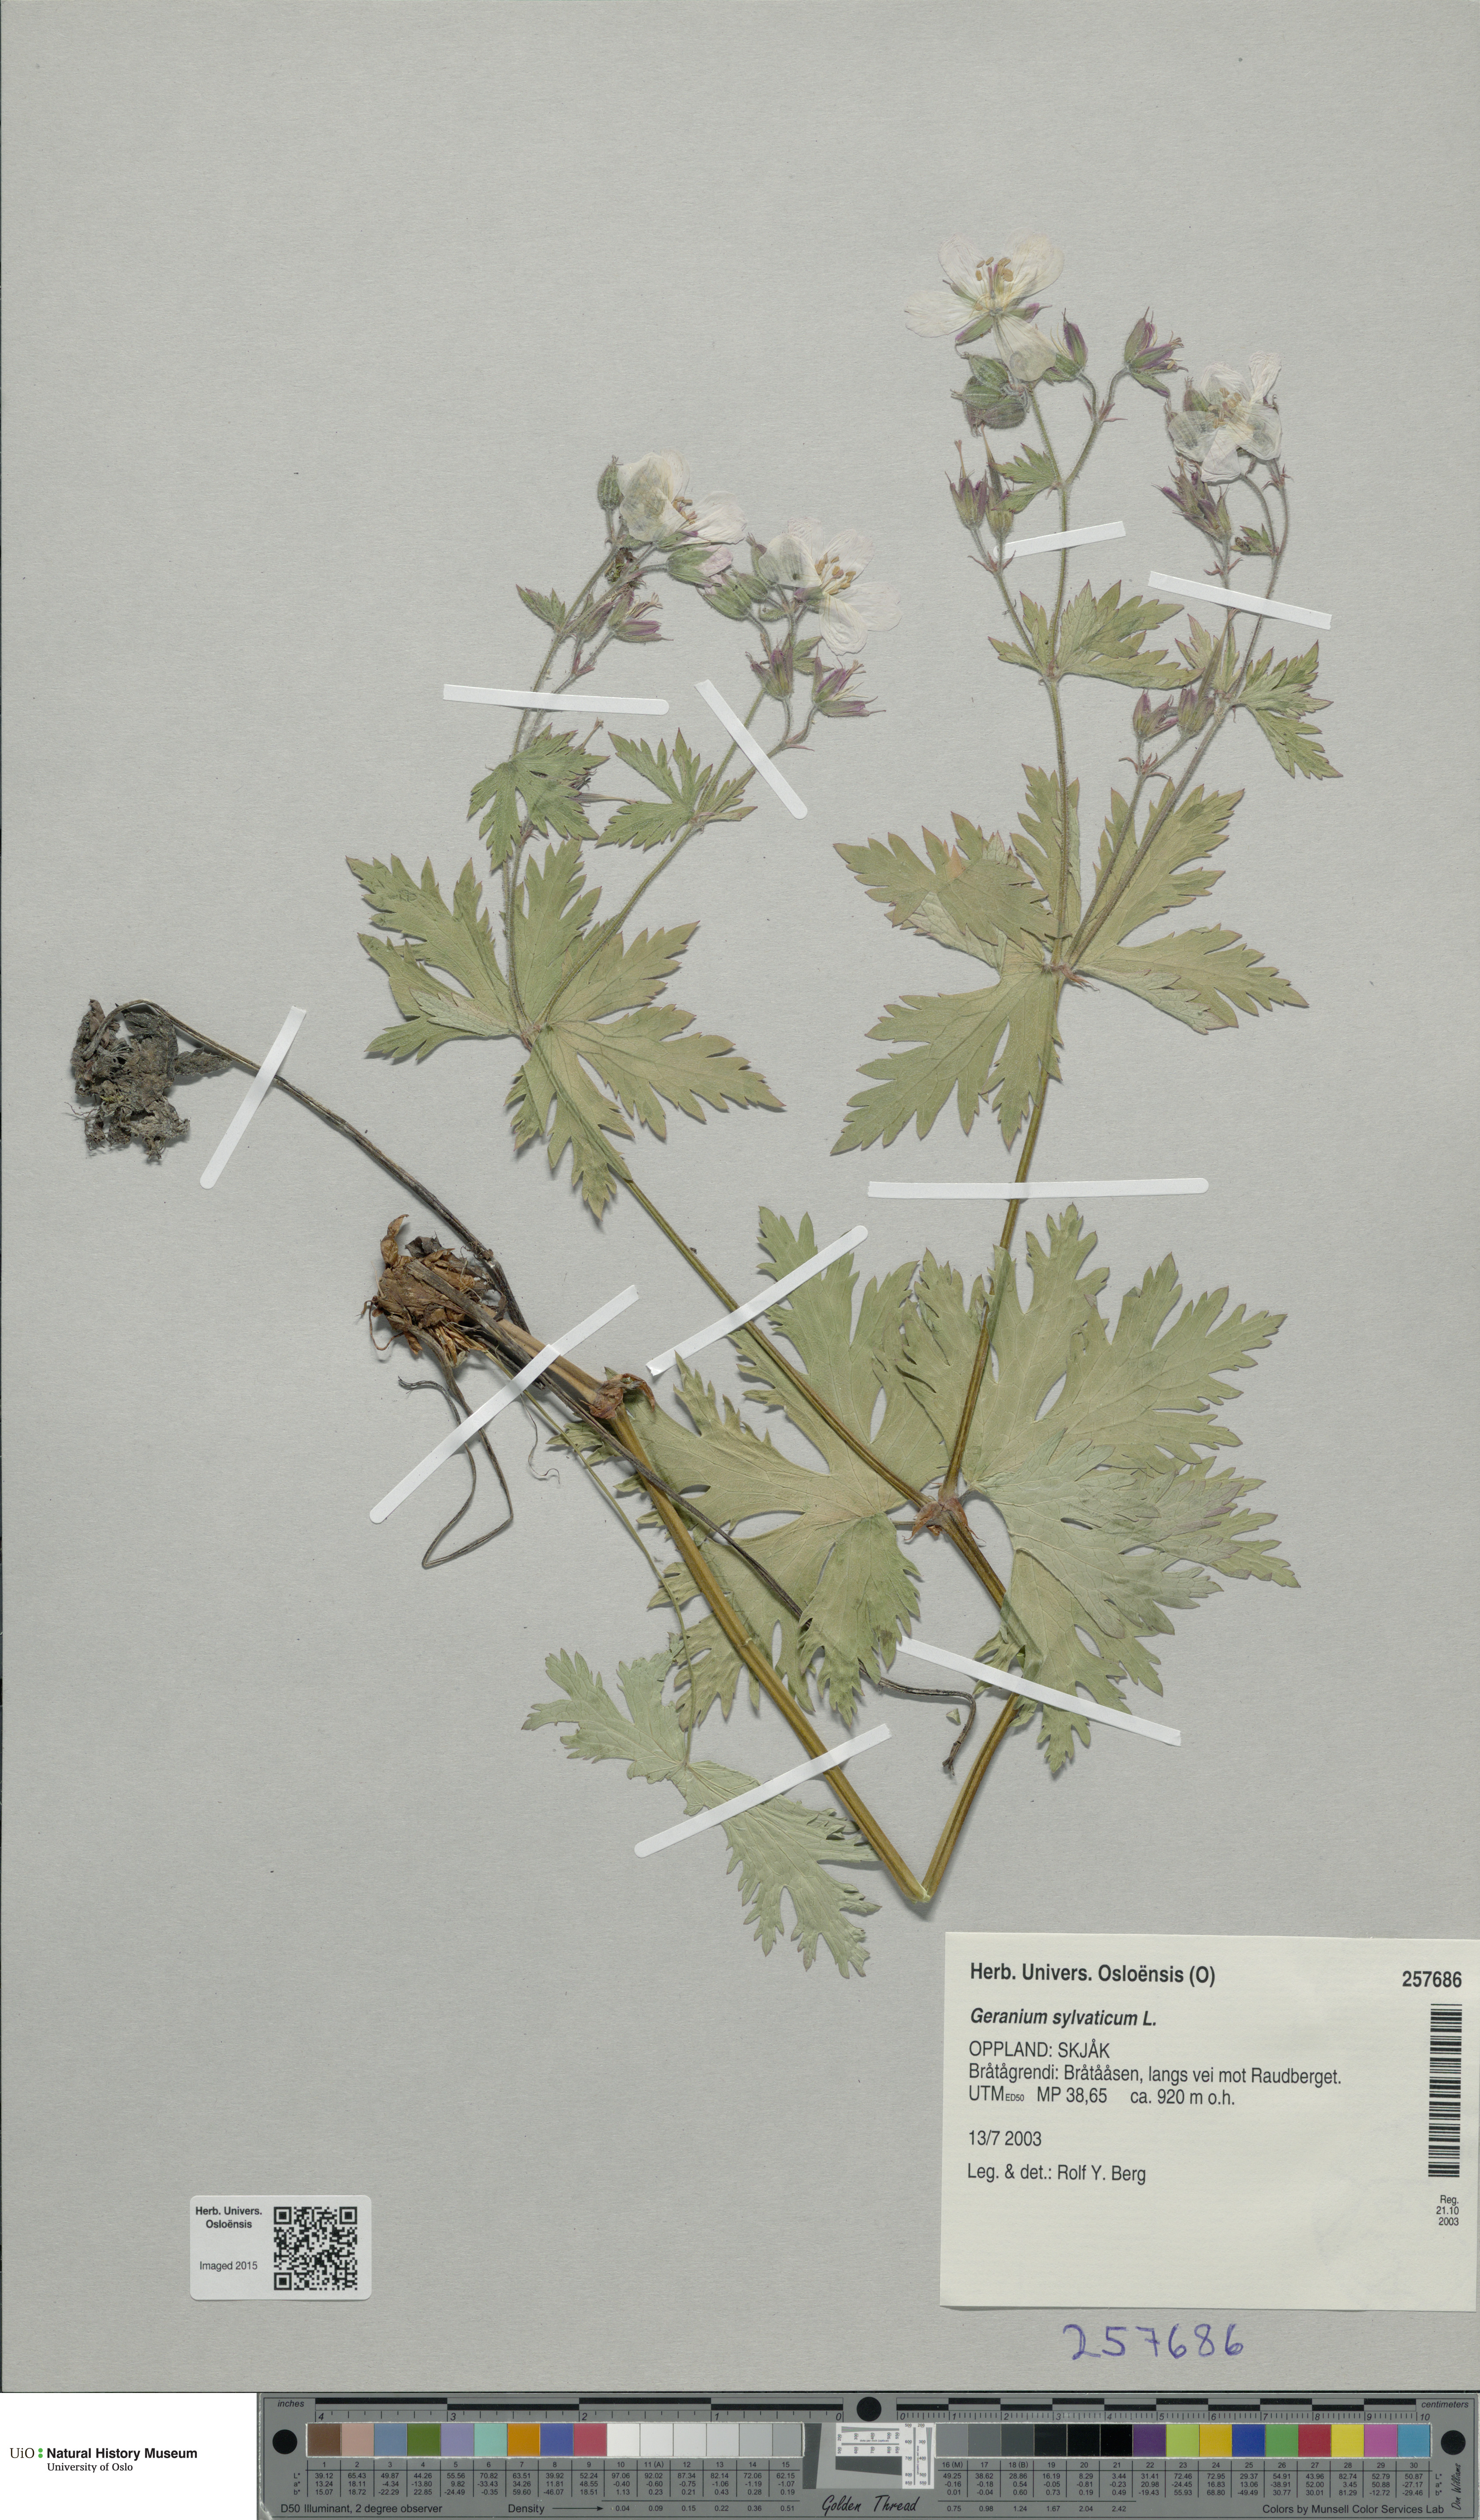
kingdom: Plantae
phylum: Tracheophyta
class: Magnoliopsida
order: Geraniales
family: Geraniaceae
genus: Geranium
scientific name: Geranium sylvaticum
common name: Wood crane's-bill
